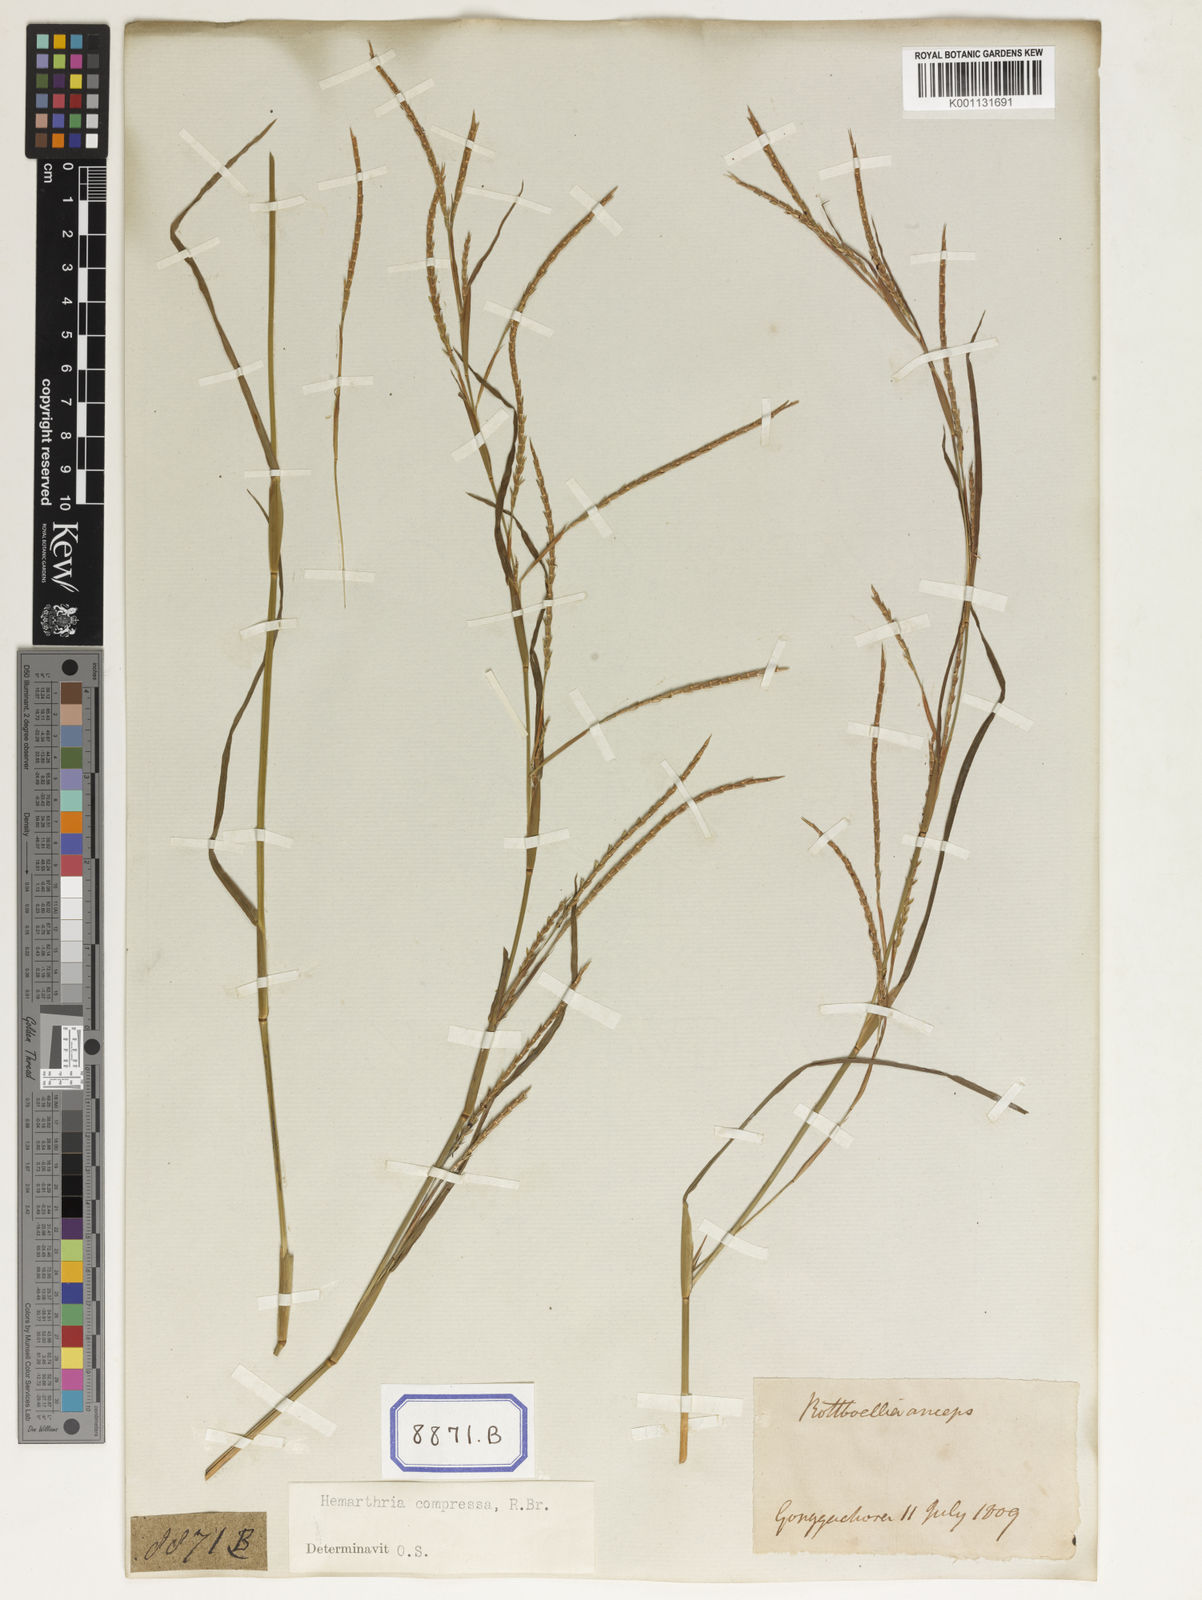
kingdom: Plantae
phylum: Tracheophyta
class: Liliopsida
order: Poales
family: Poaceae
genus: Hemarthria
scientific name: Hemarthria
